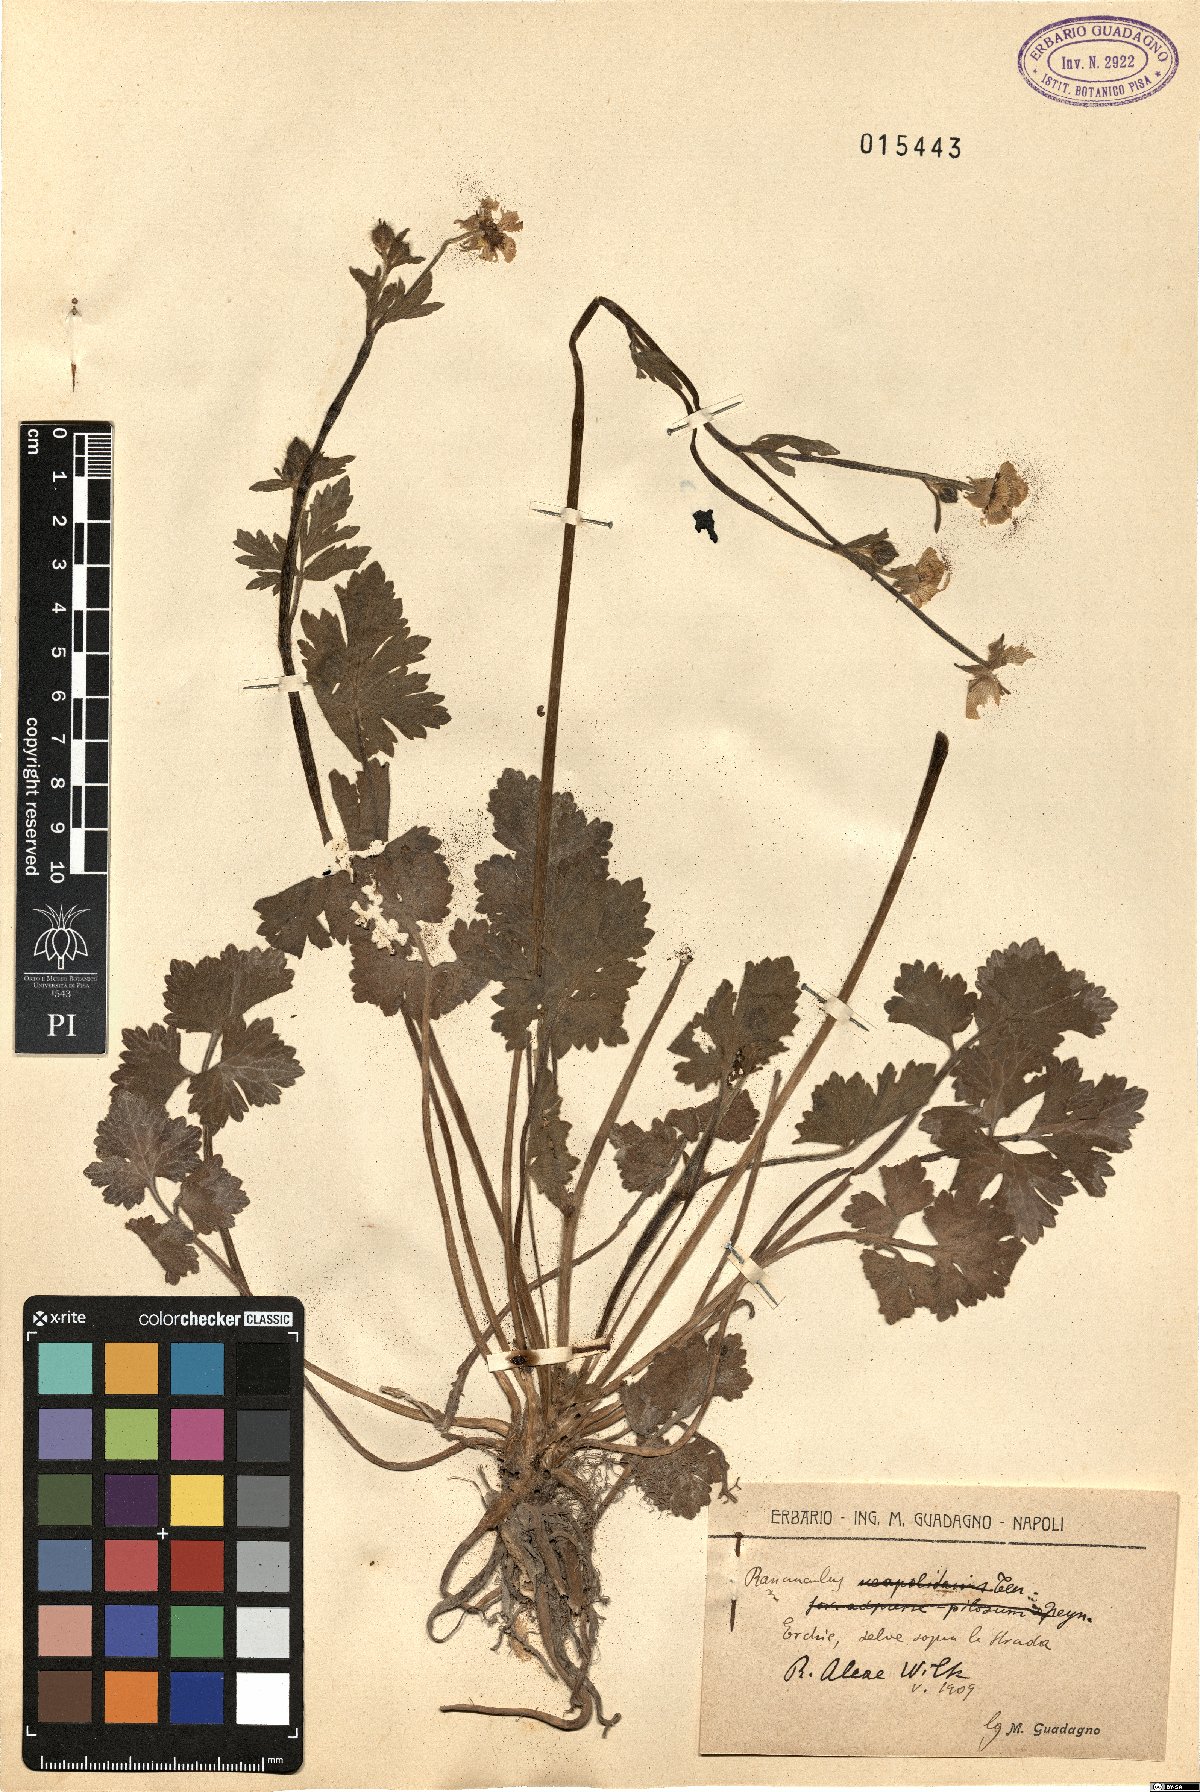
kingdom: Plantae
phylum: Tracheophyta
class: Magnoliopsida
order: Ranunculales
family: Ranunculaceae
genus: Ranunculus
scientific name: Ranunculus neapolitanus
